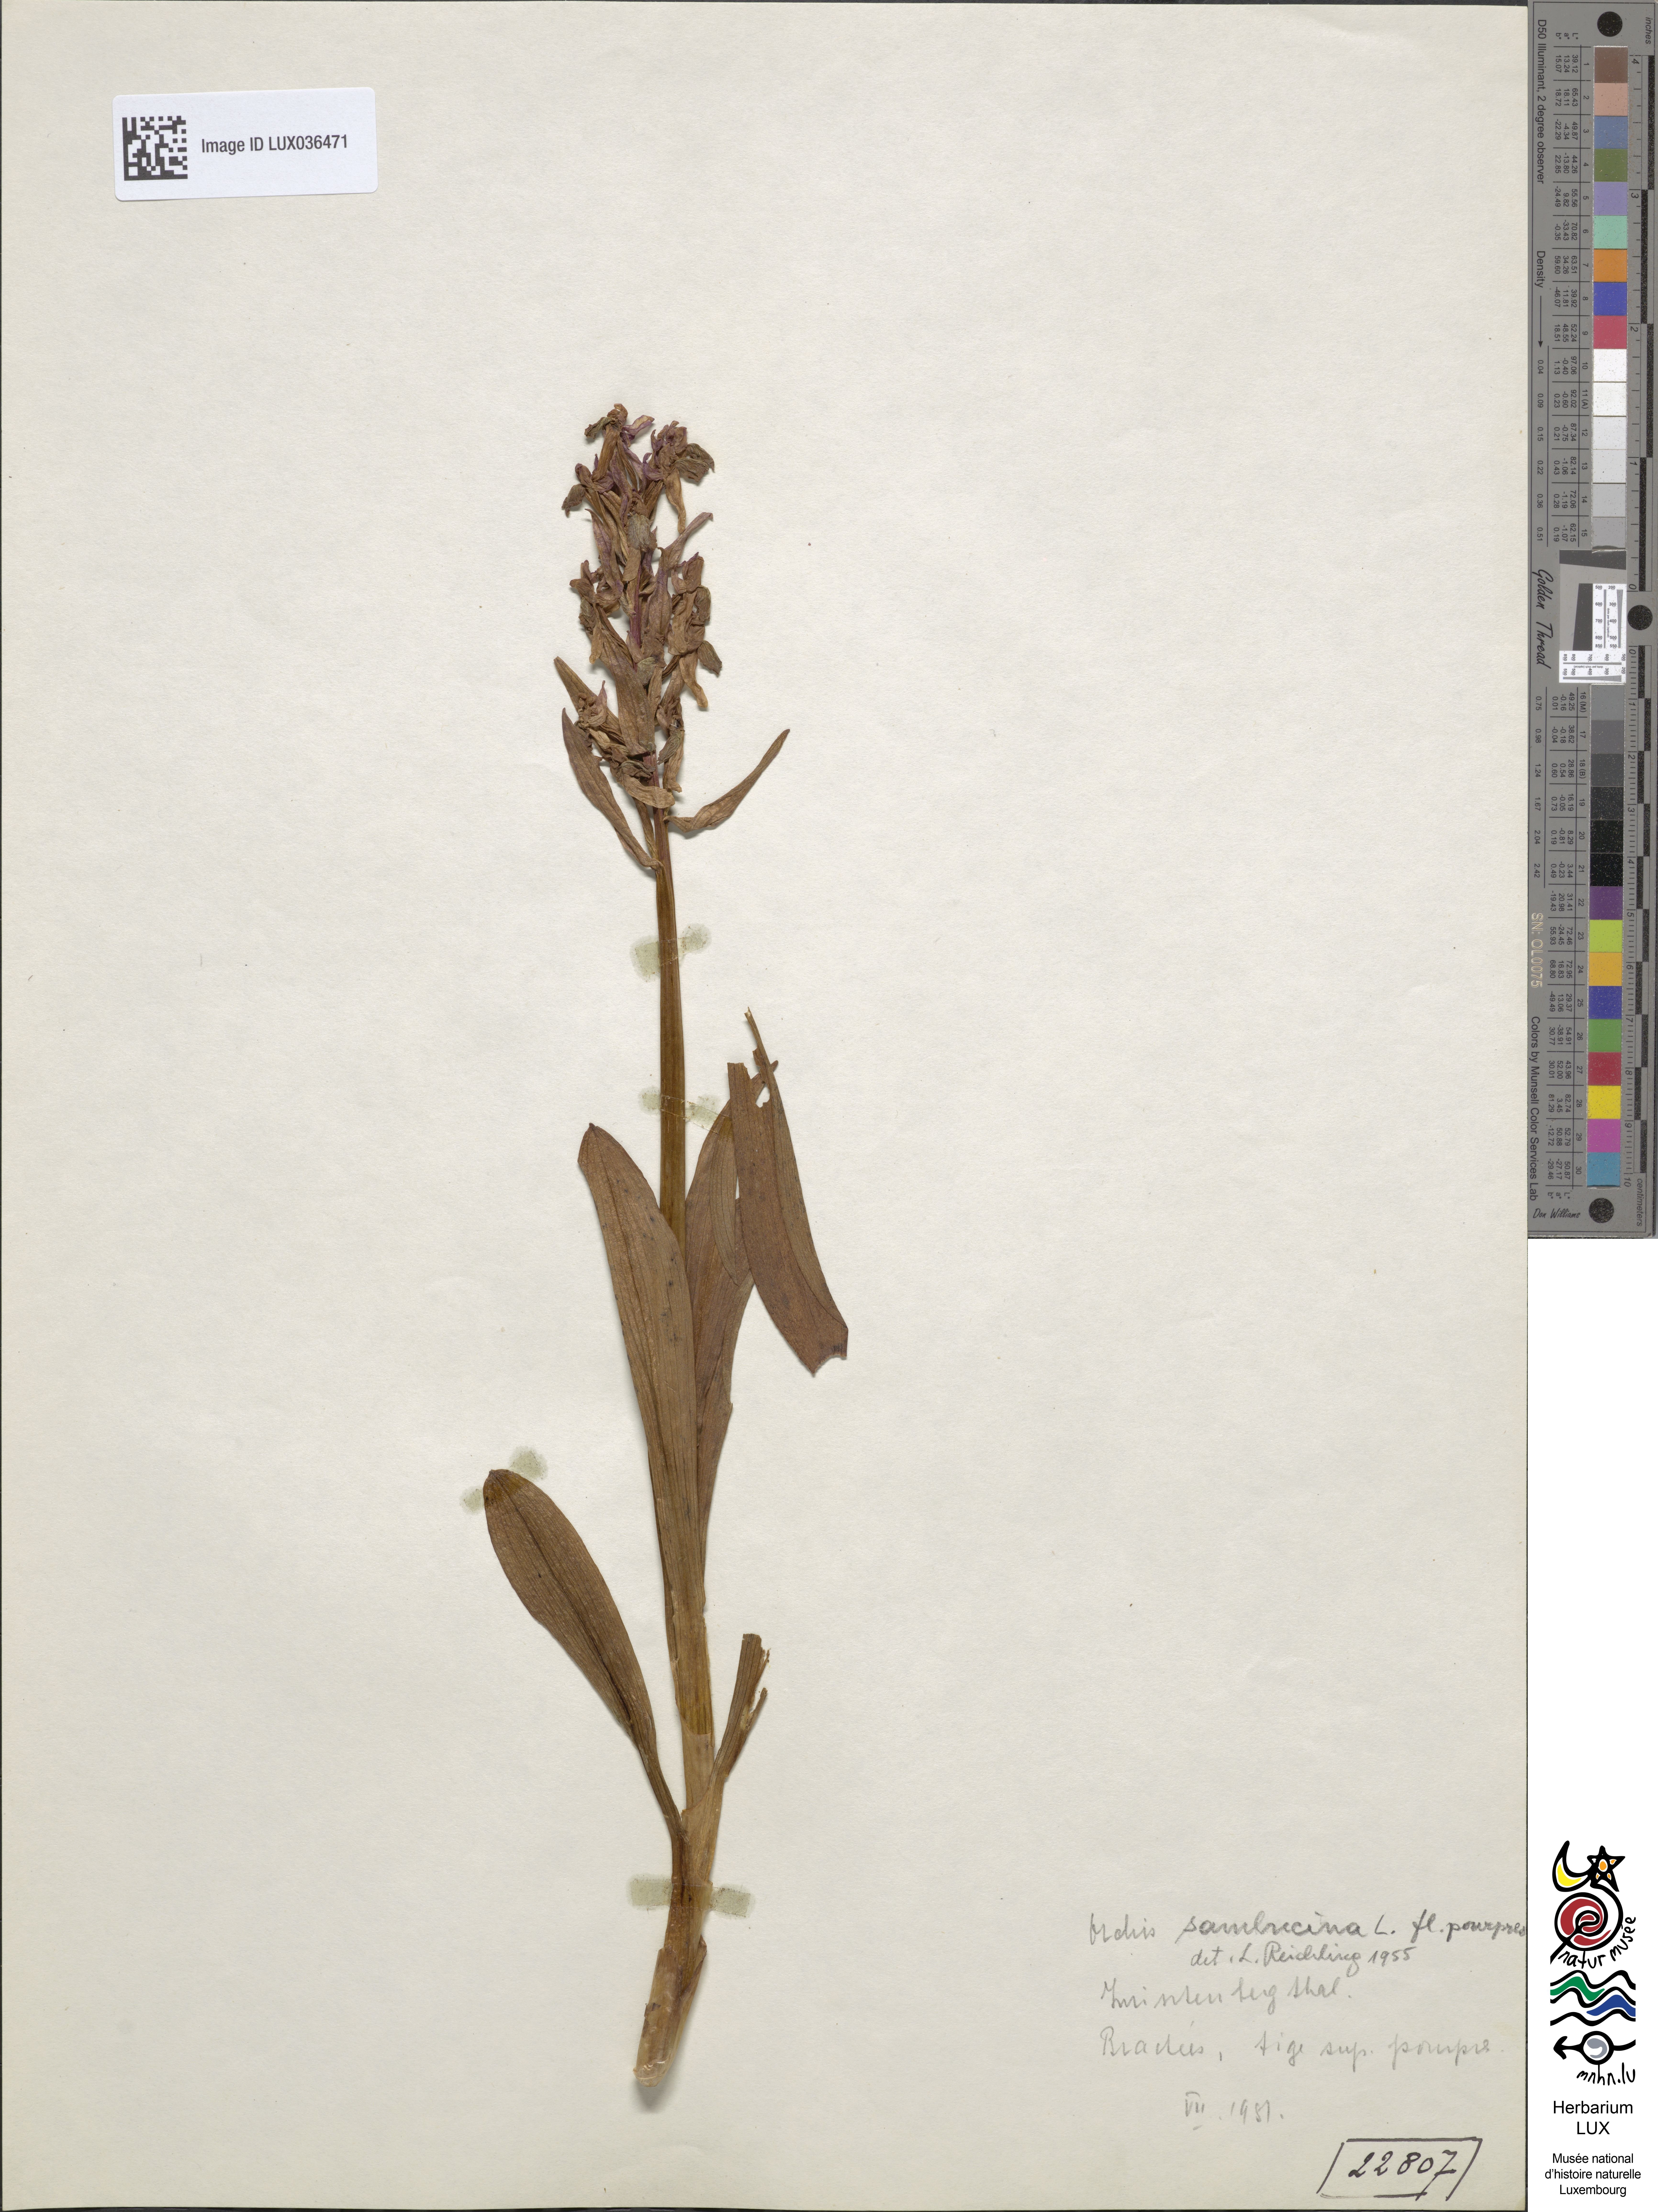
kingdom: Plantae
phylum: Tracheophyta
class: Liliopsida
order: Asparagales
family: Orchidaceae
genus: Dactylorhiza
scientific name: Dactylorhiza sambucina
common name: Elder-flowered orchid
